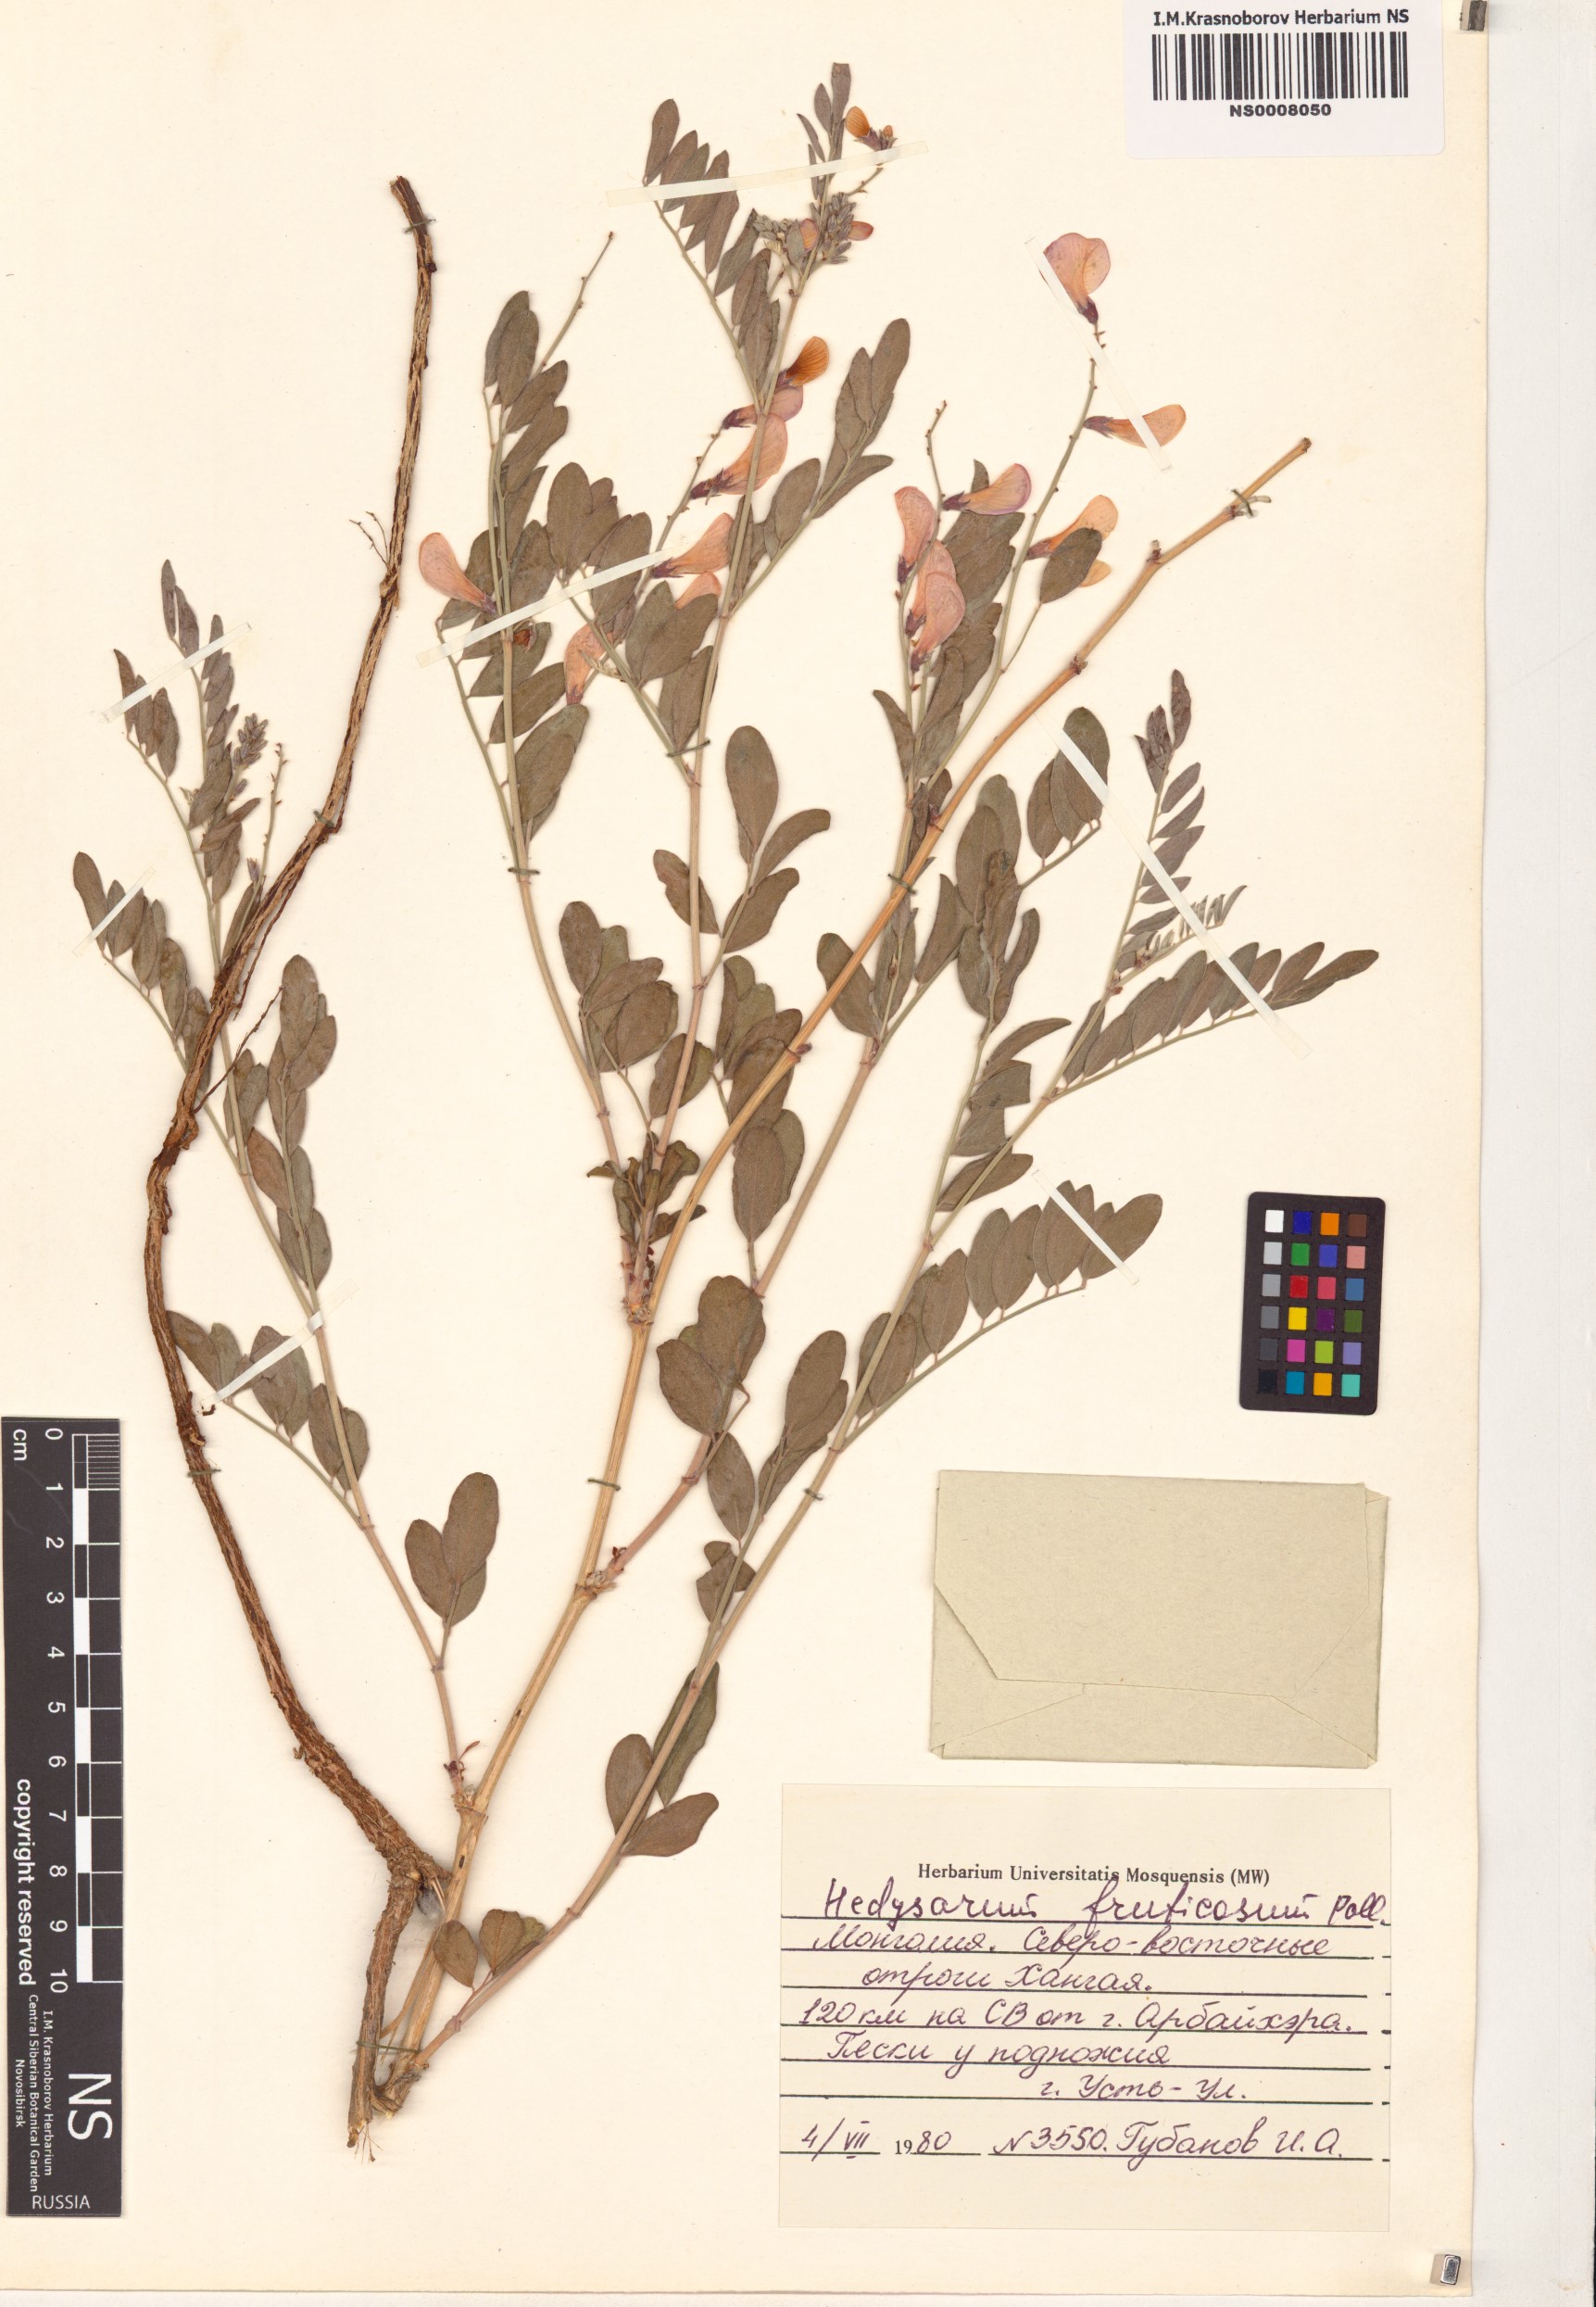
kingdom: Plantae
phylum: Tracheophyta
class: Magnoliopsida
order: Fabales
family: Fabaceae
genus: Corethrodendron
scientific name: Corethrodendron fruticosum
